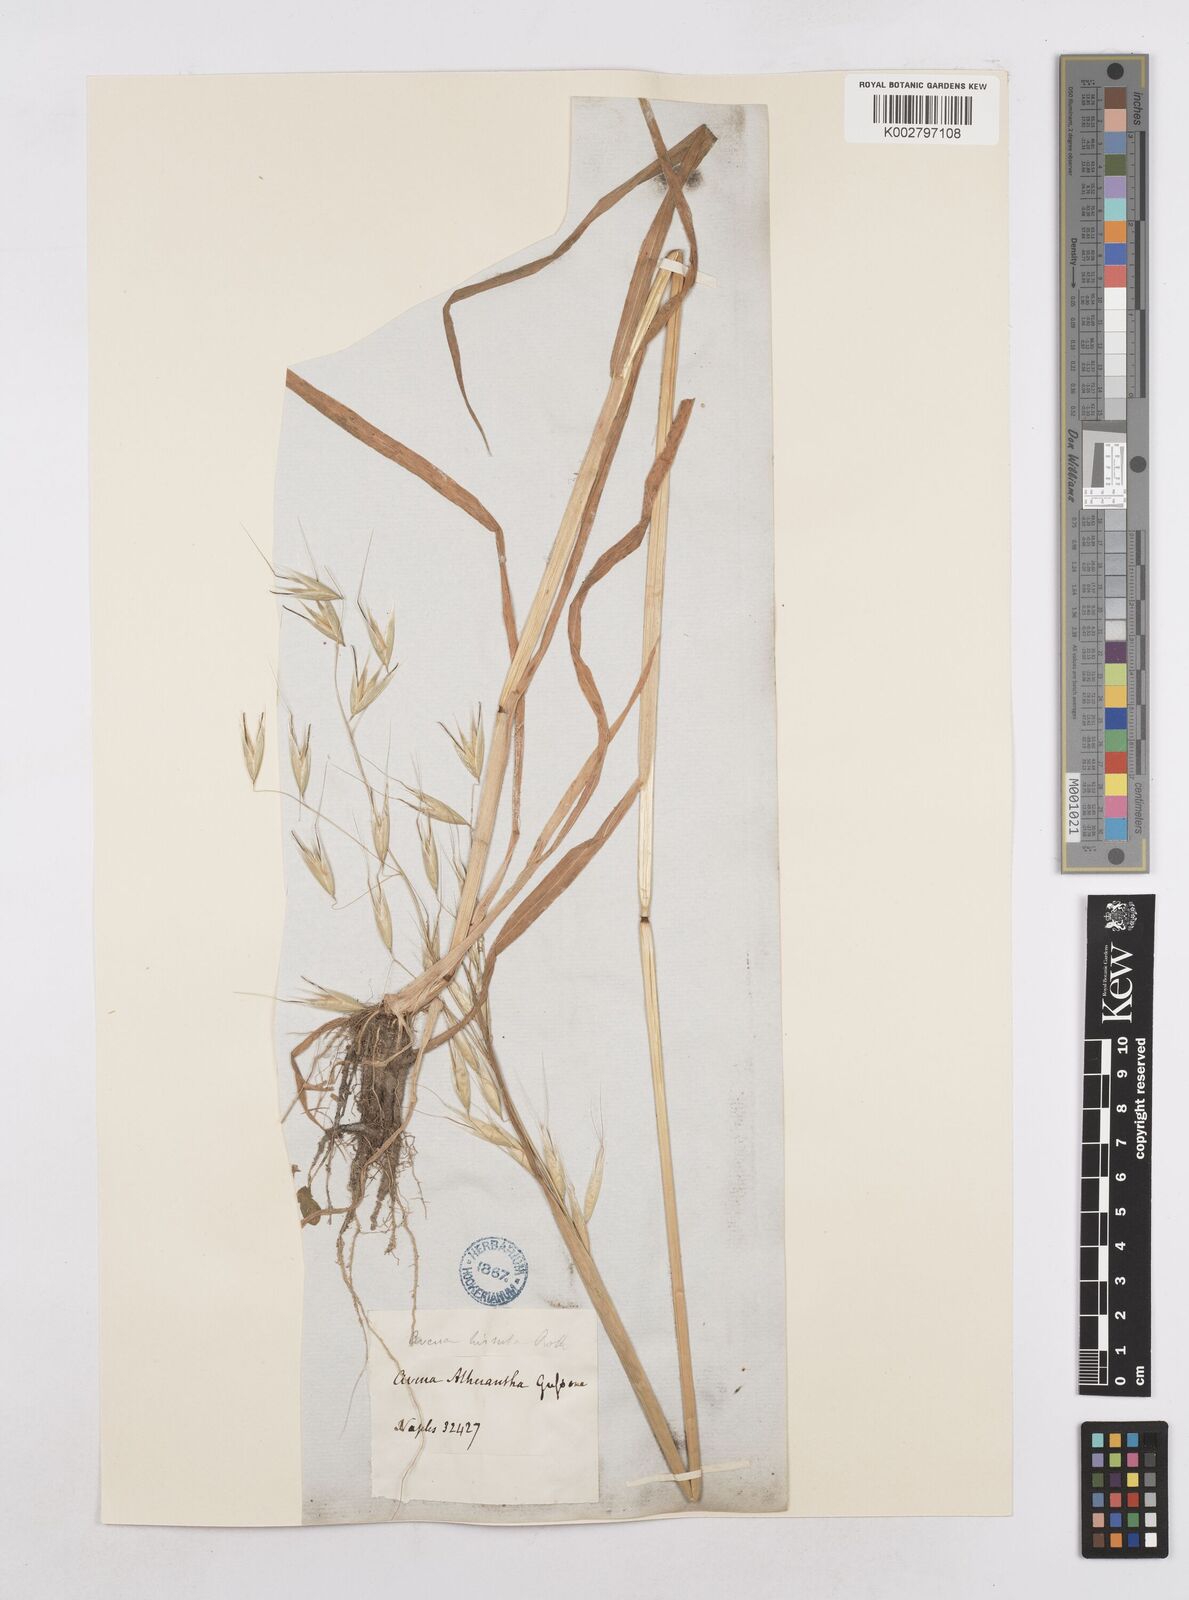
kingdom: Plantae
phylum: Tracheophyta
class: Liliopsida
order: Poales
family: Poaceae
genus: Avena
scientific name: Avena
